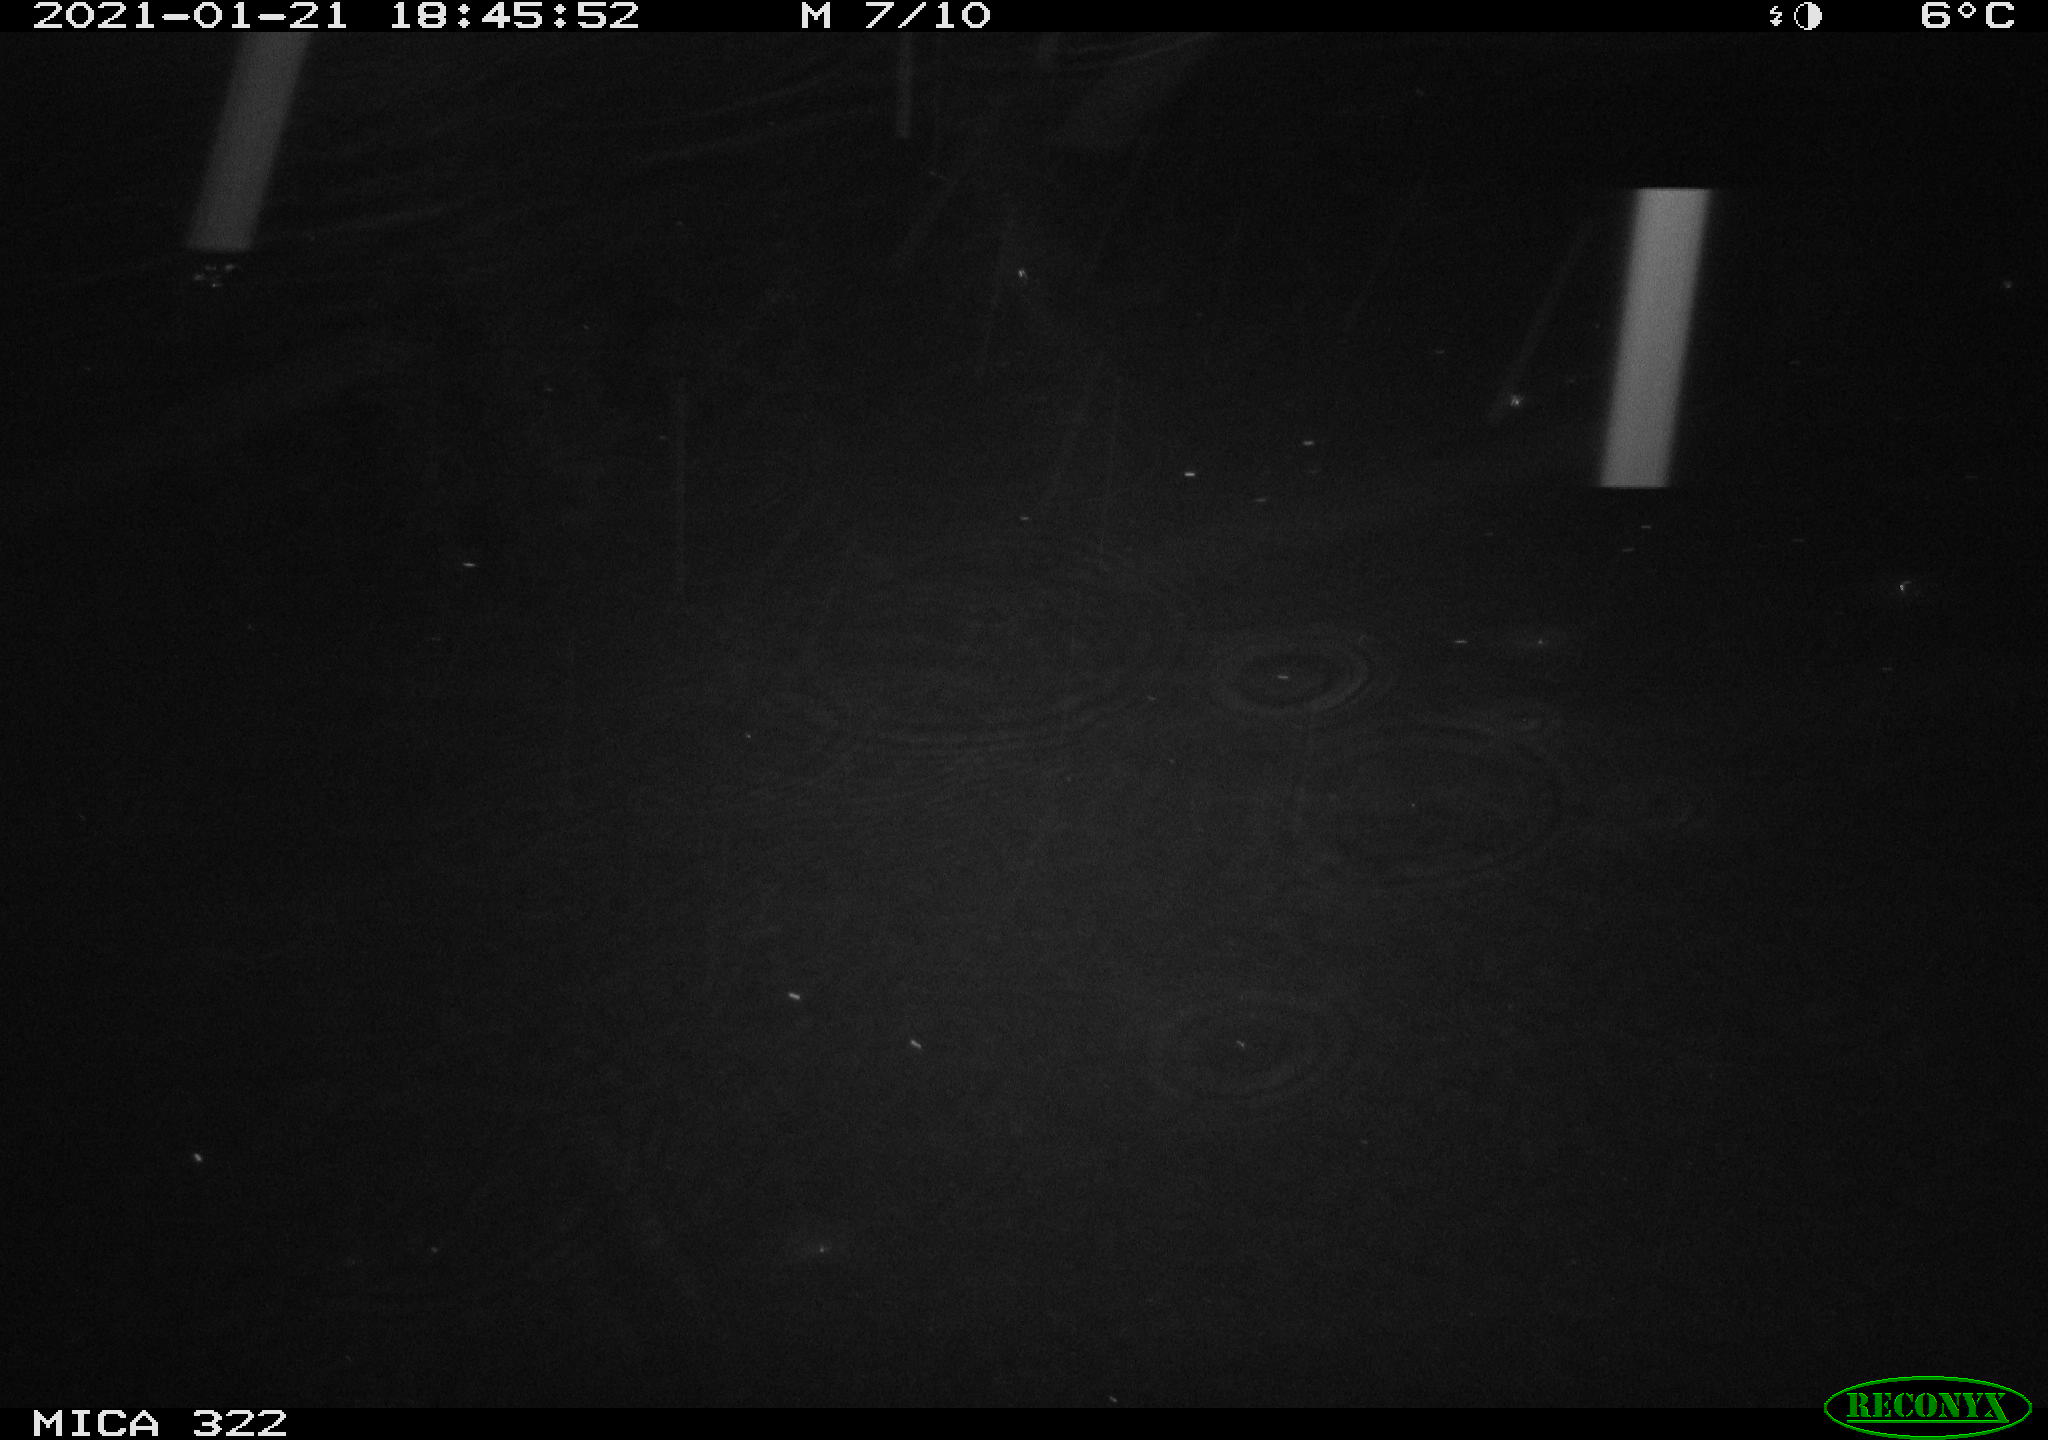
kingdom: Animalia
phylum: Chordata
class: Aves
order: Gruiformes
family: Rallidae
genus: Fulica
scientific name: Fulica atra
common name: Eurasian coot
